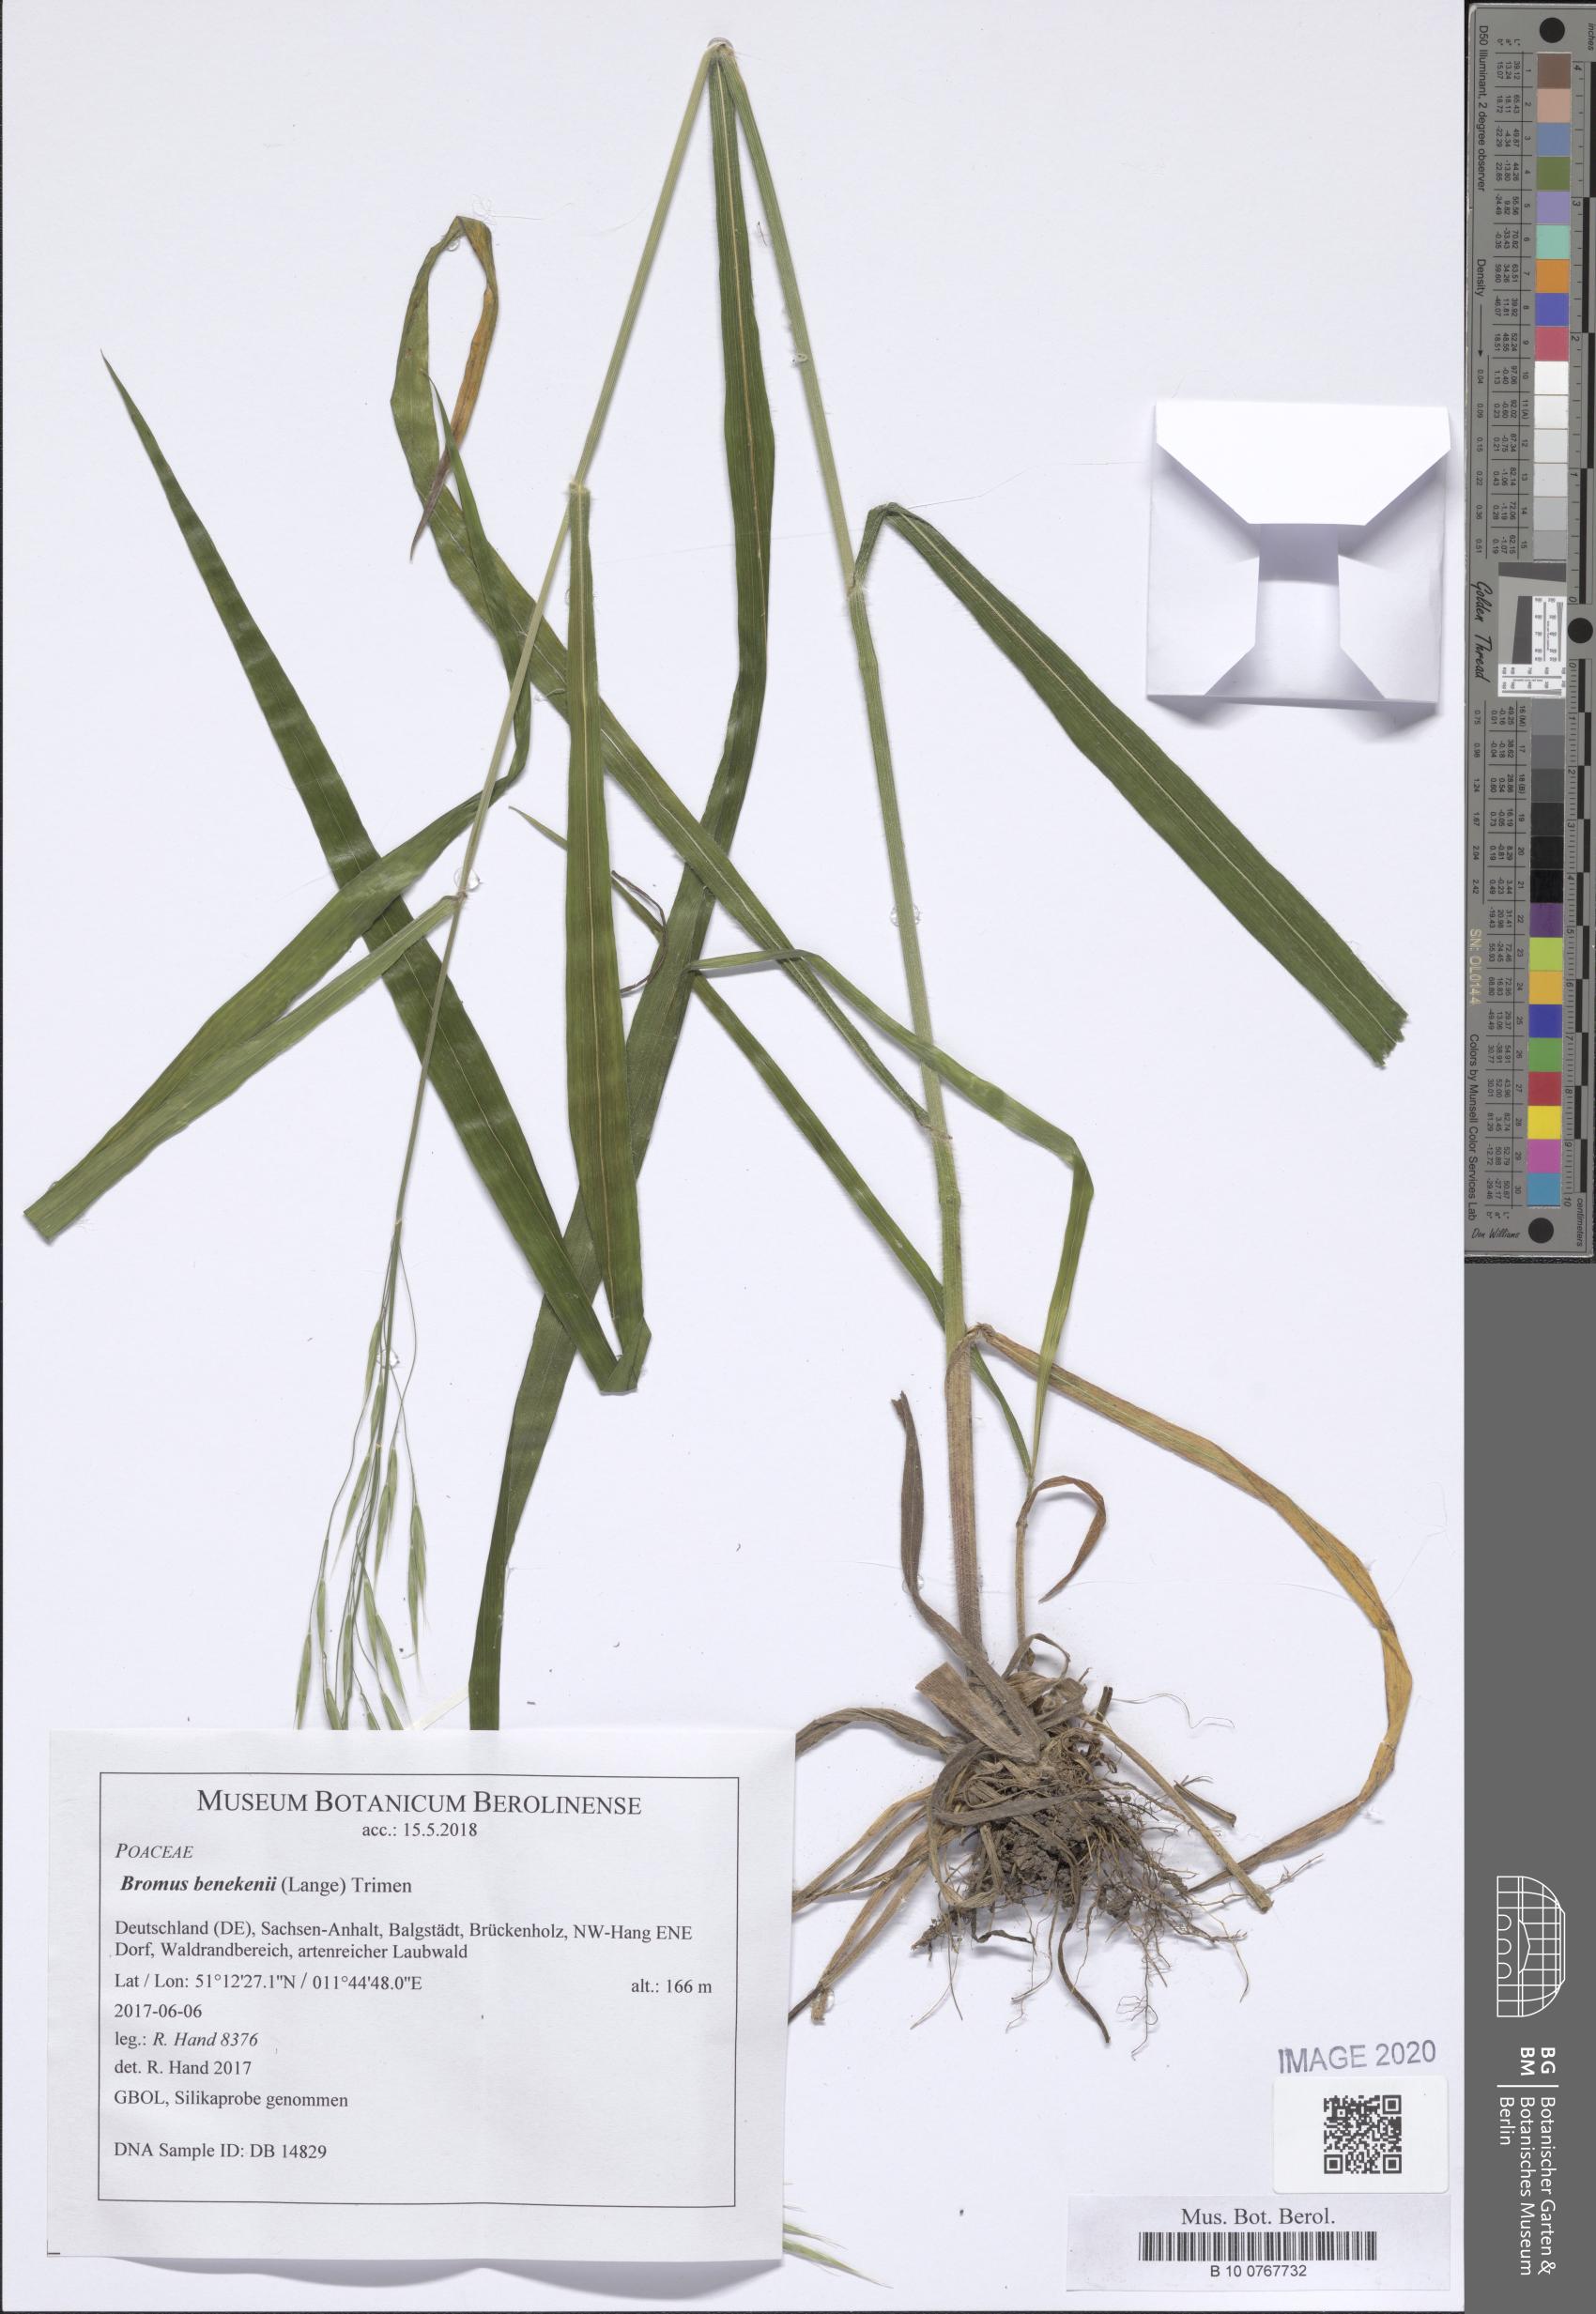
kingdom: Plantae
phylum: Tracheophyta
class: Liliopsida
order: Poales
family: Poaceae
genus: Bromus
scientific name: Bromus benekenii
